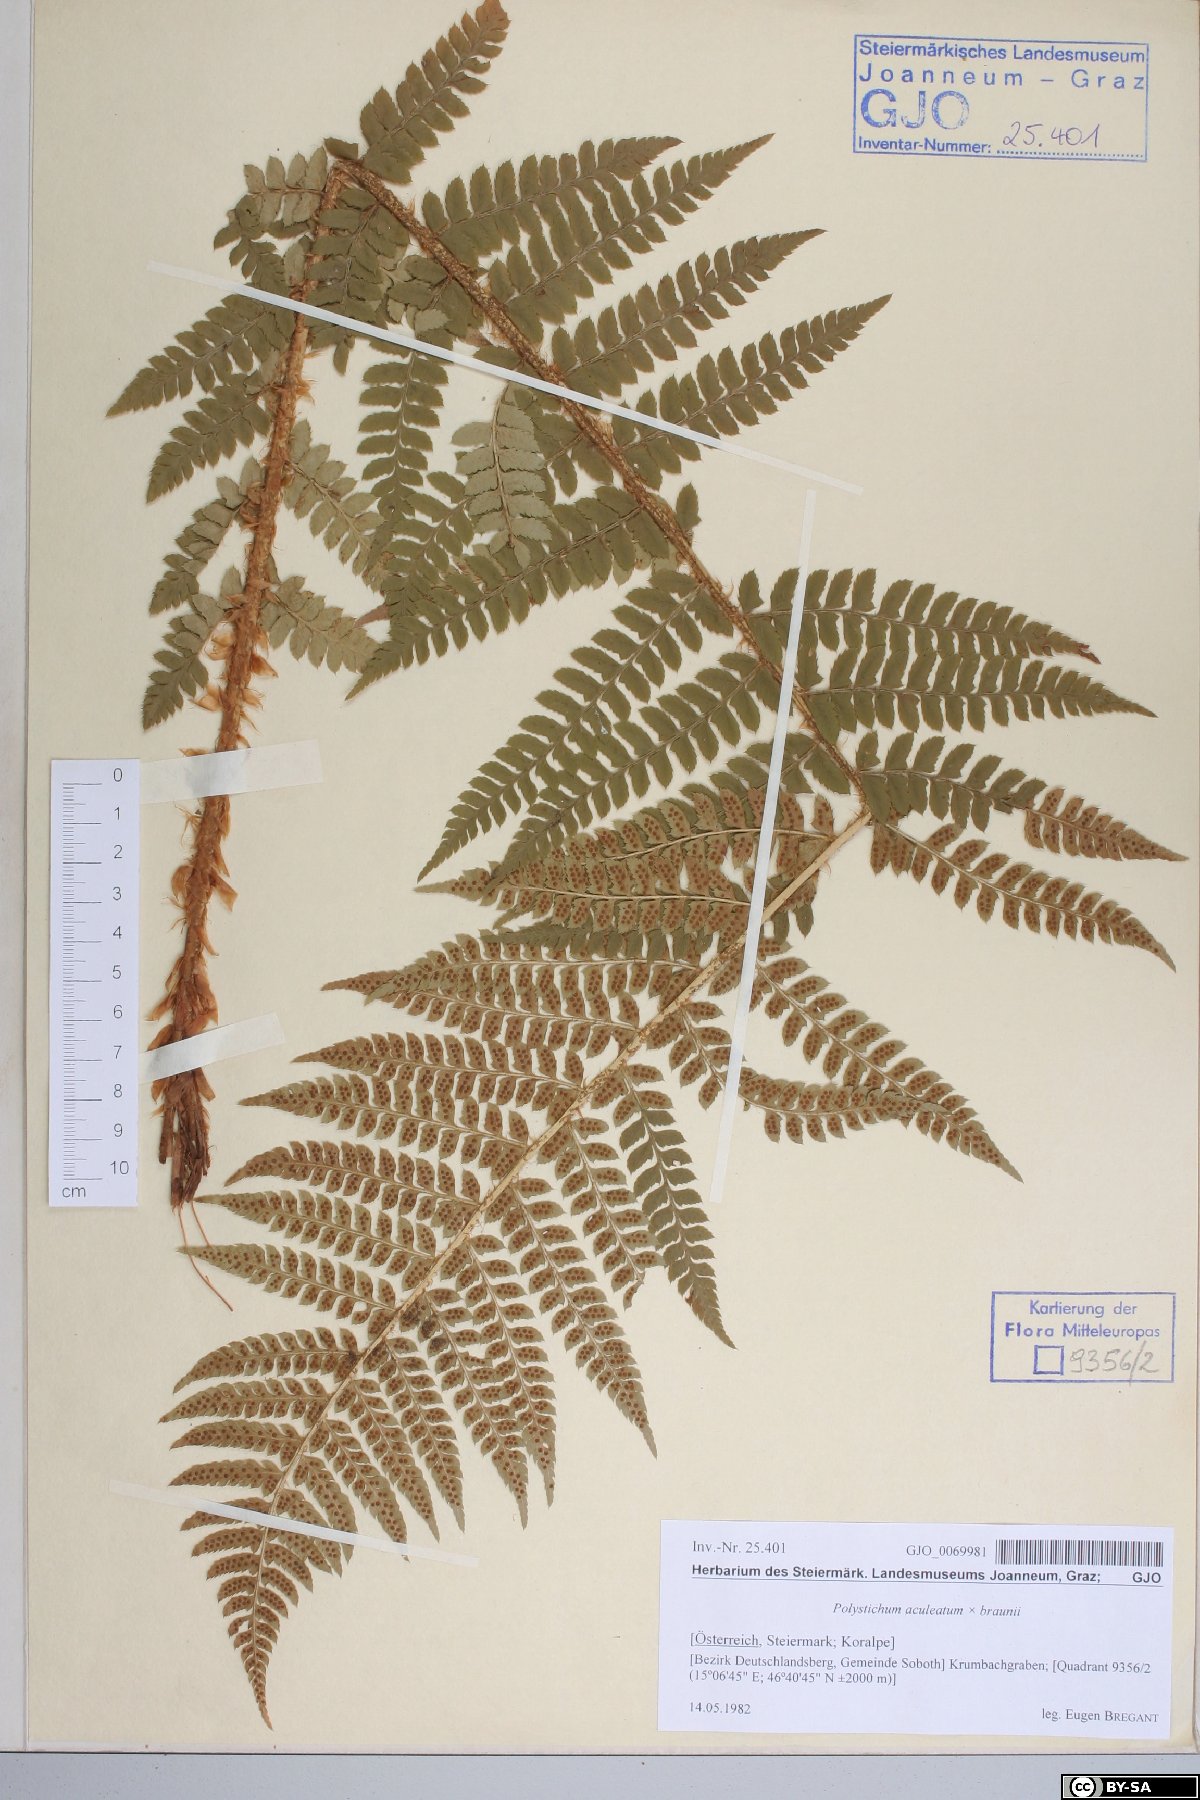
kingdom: Plantae
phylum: Tracheophyta
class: Polypodiopsida
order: Polypodiales
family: Dryopteridaceae
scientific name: Dryopteridaceae
